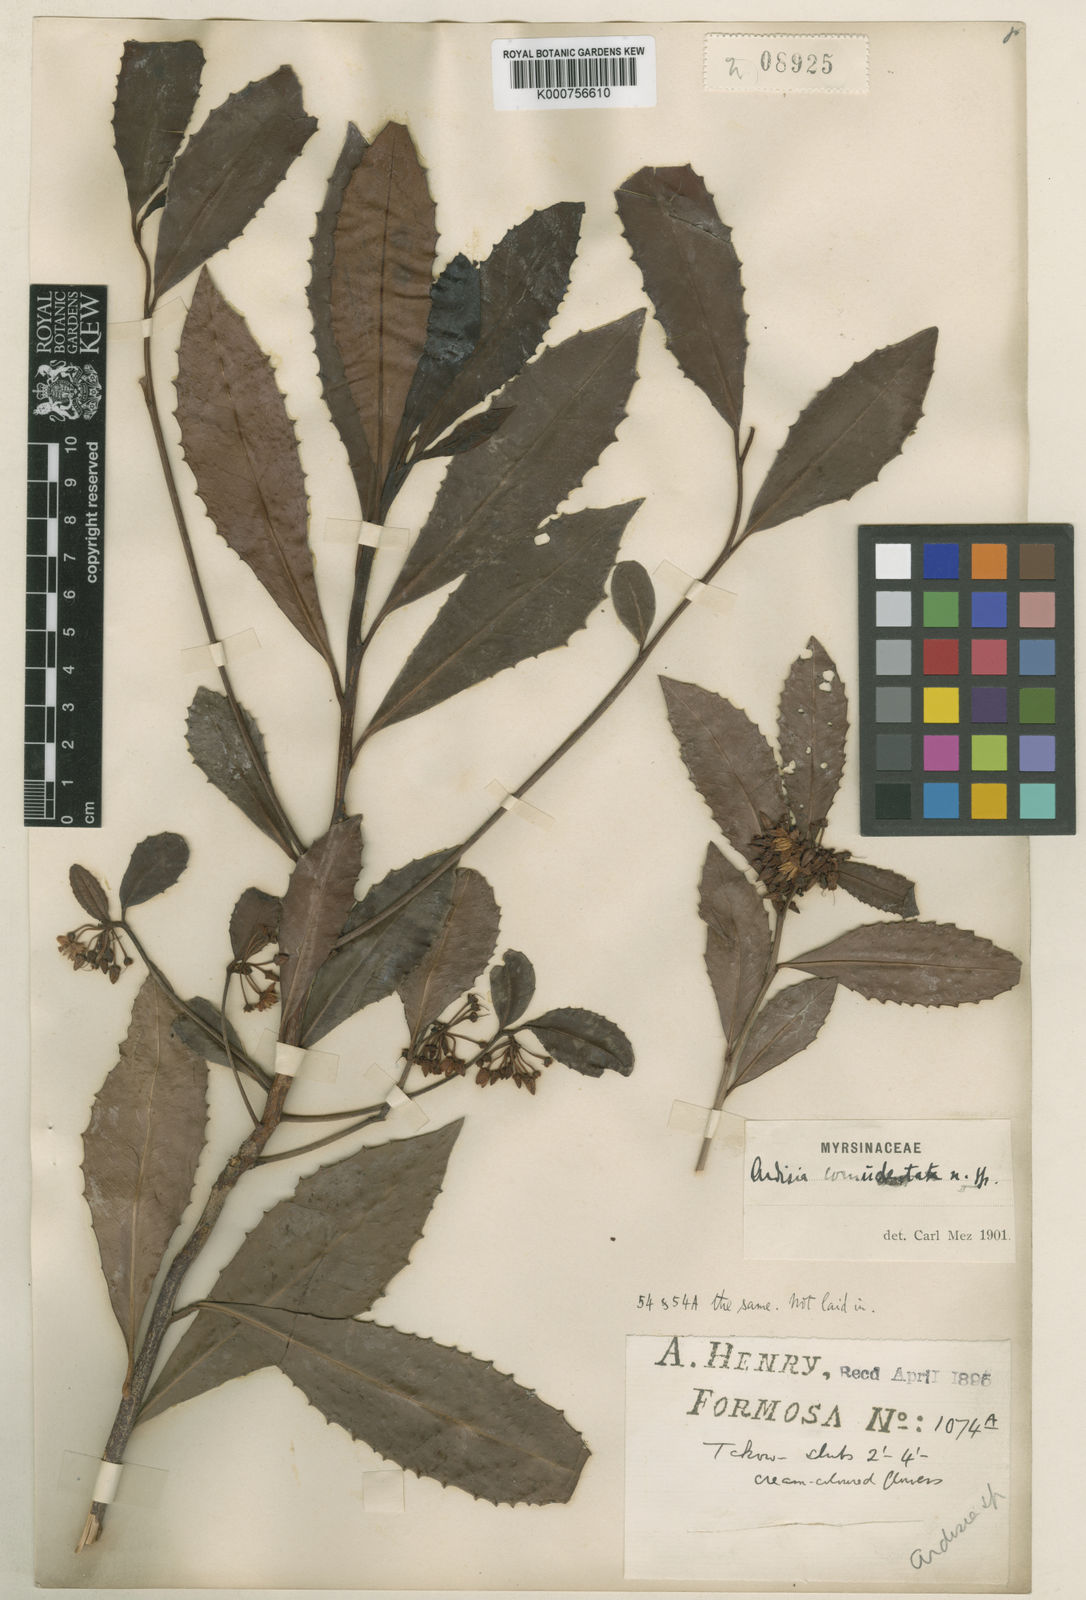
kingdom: Plantae
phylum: Tracheophyta
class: Magnoliopsida
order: Ericales
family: Primulaceae
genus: Ardisia
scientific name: Ardisia cornudentata
